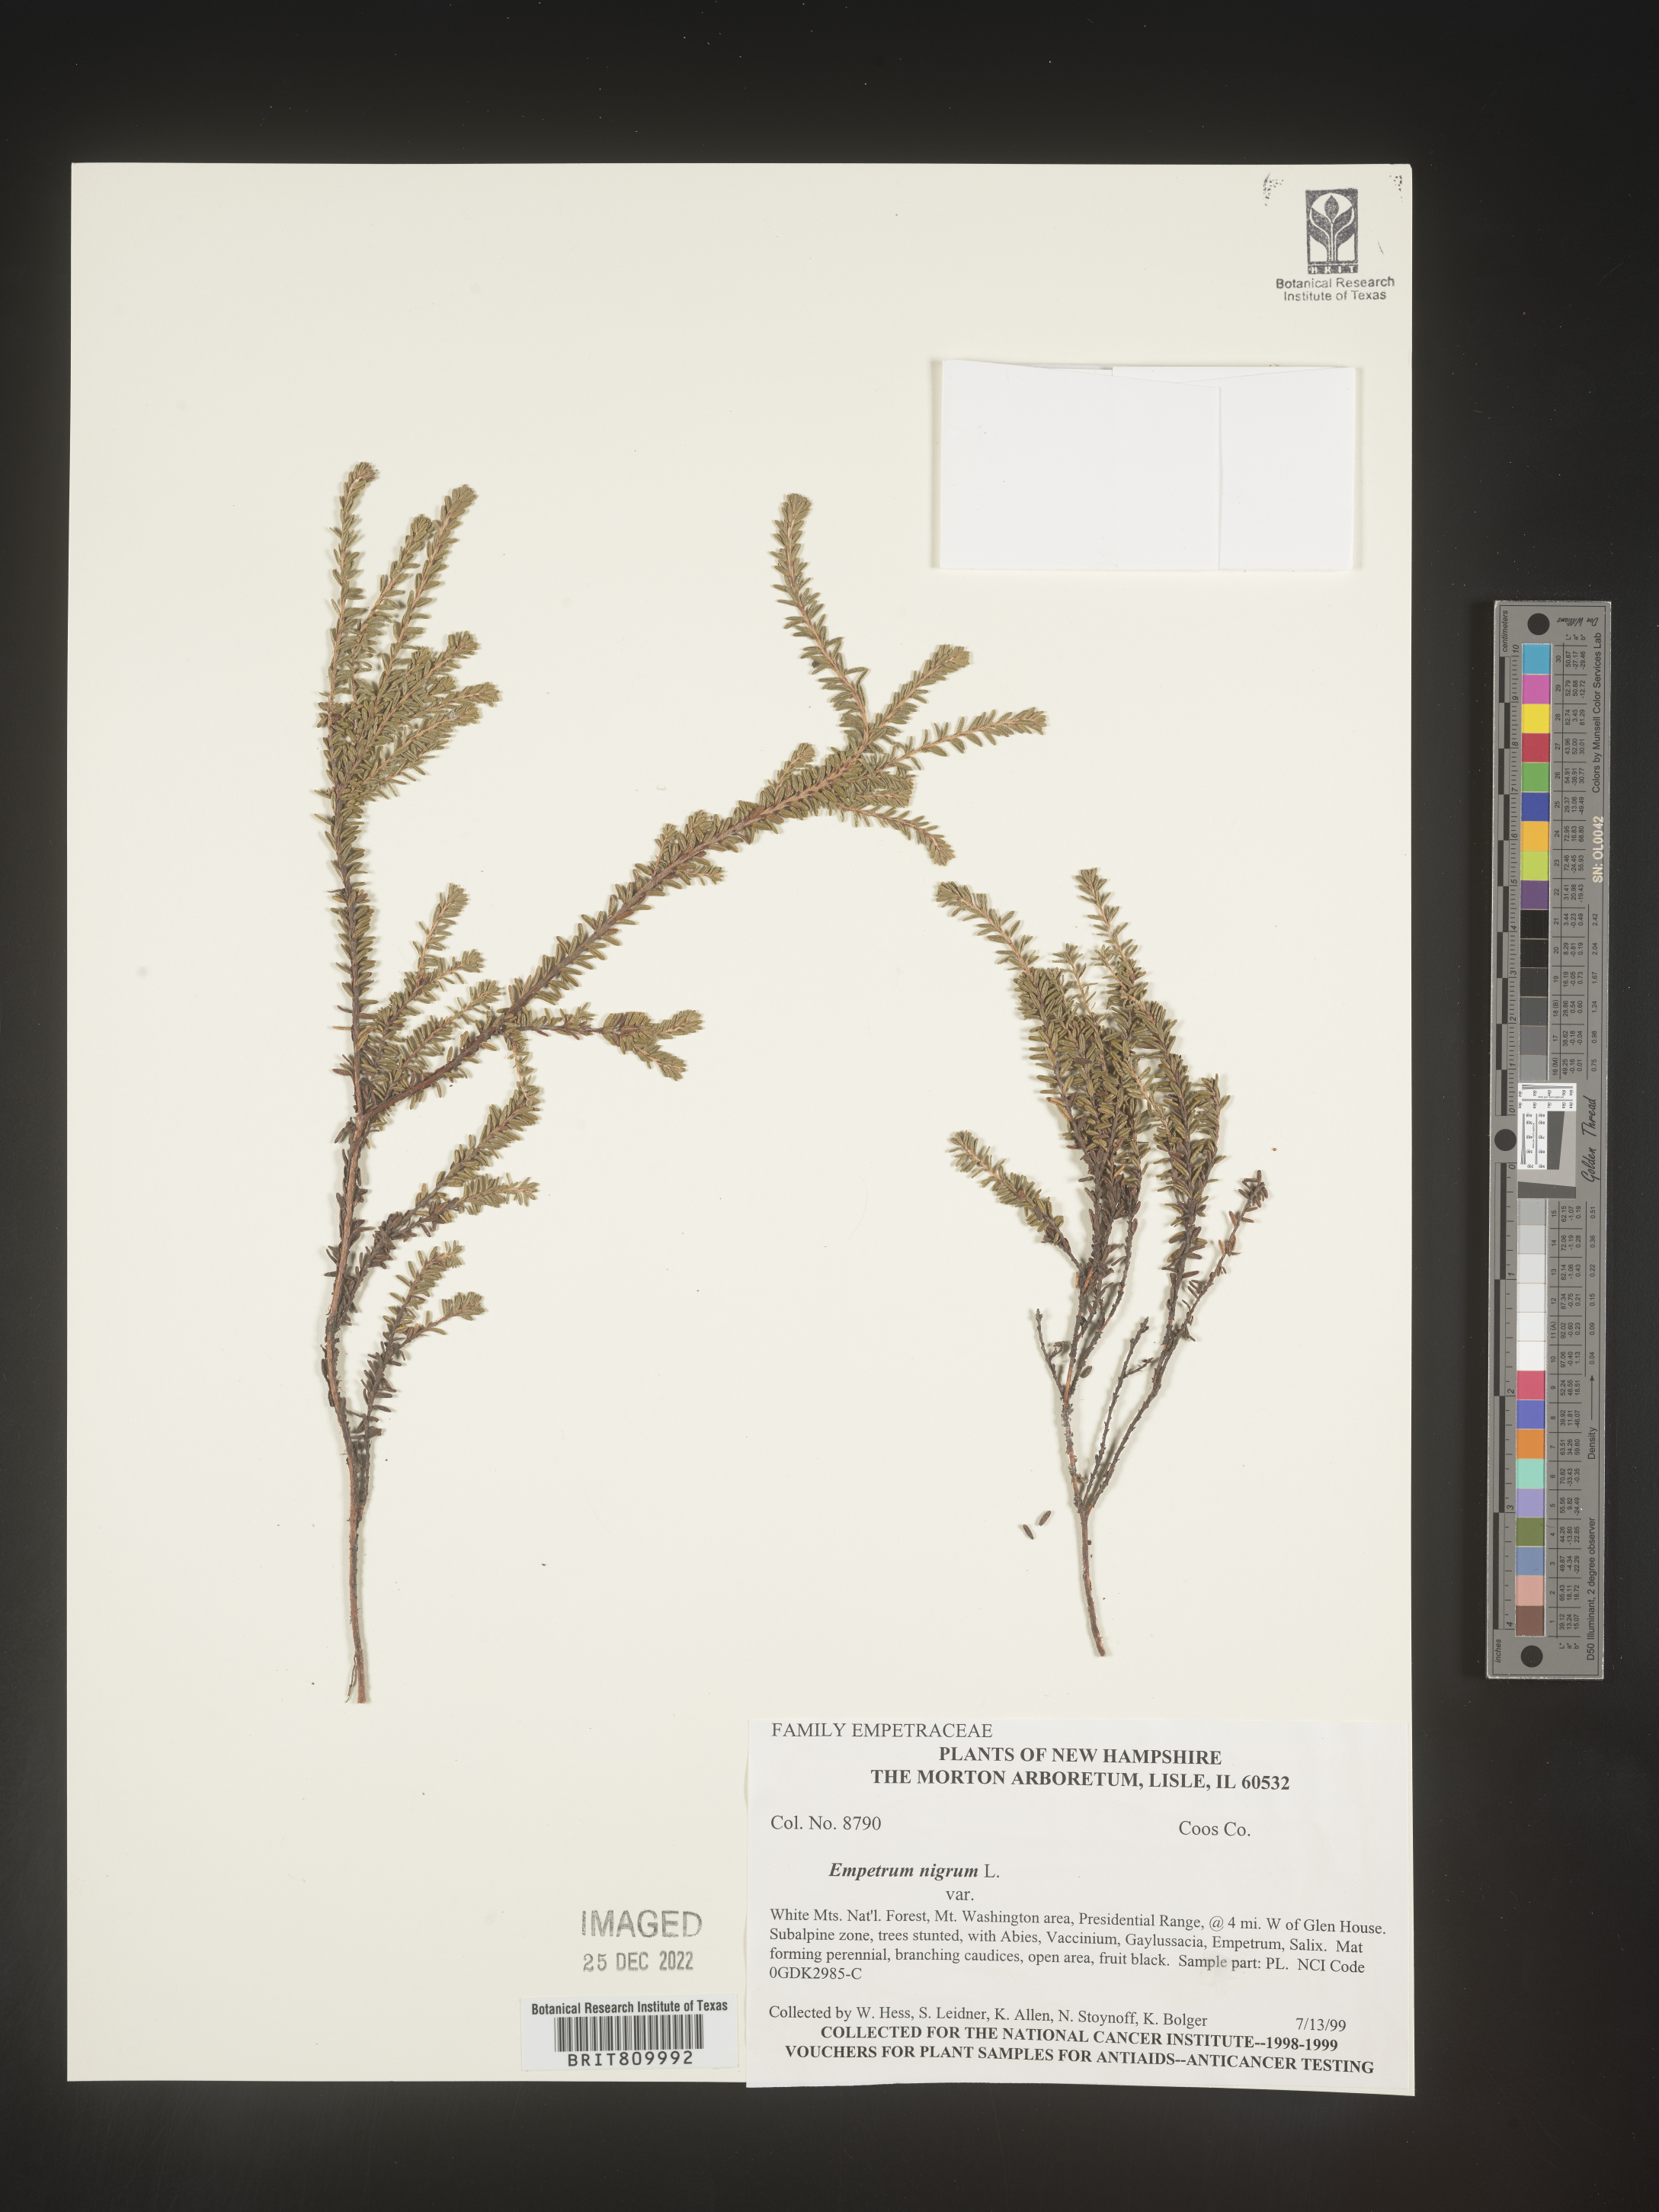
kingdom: Plantae
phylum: Tracheophyta
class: Magnoliopsida
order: Ericales
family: Ericaceae
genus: Empetrum
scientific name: Empetrum
